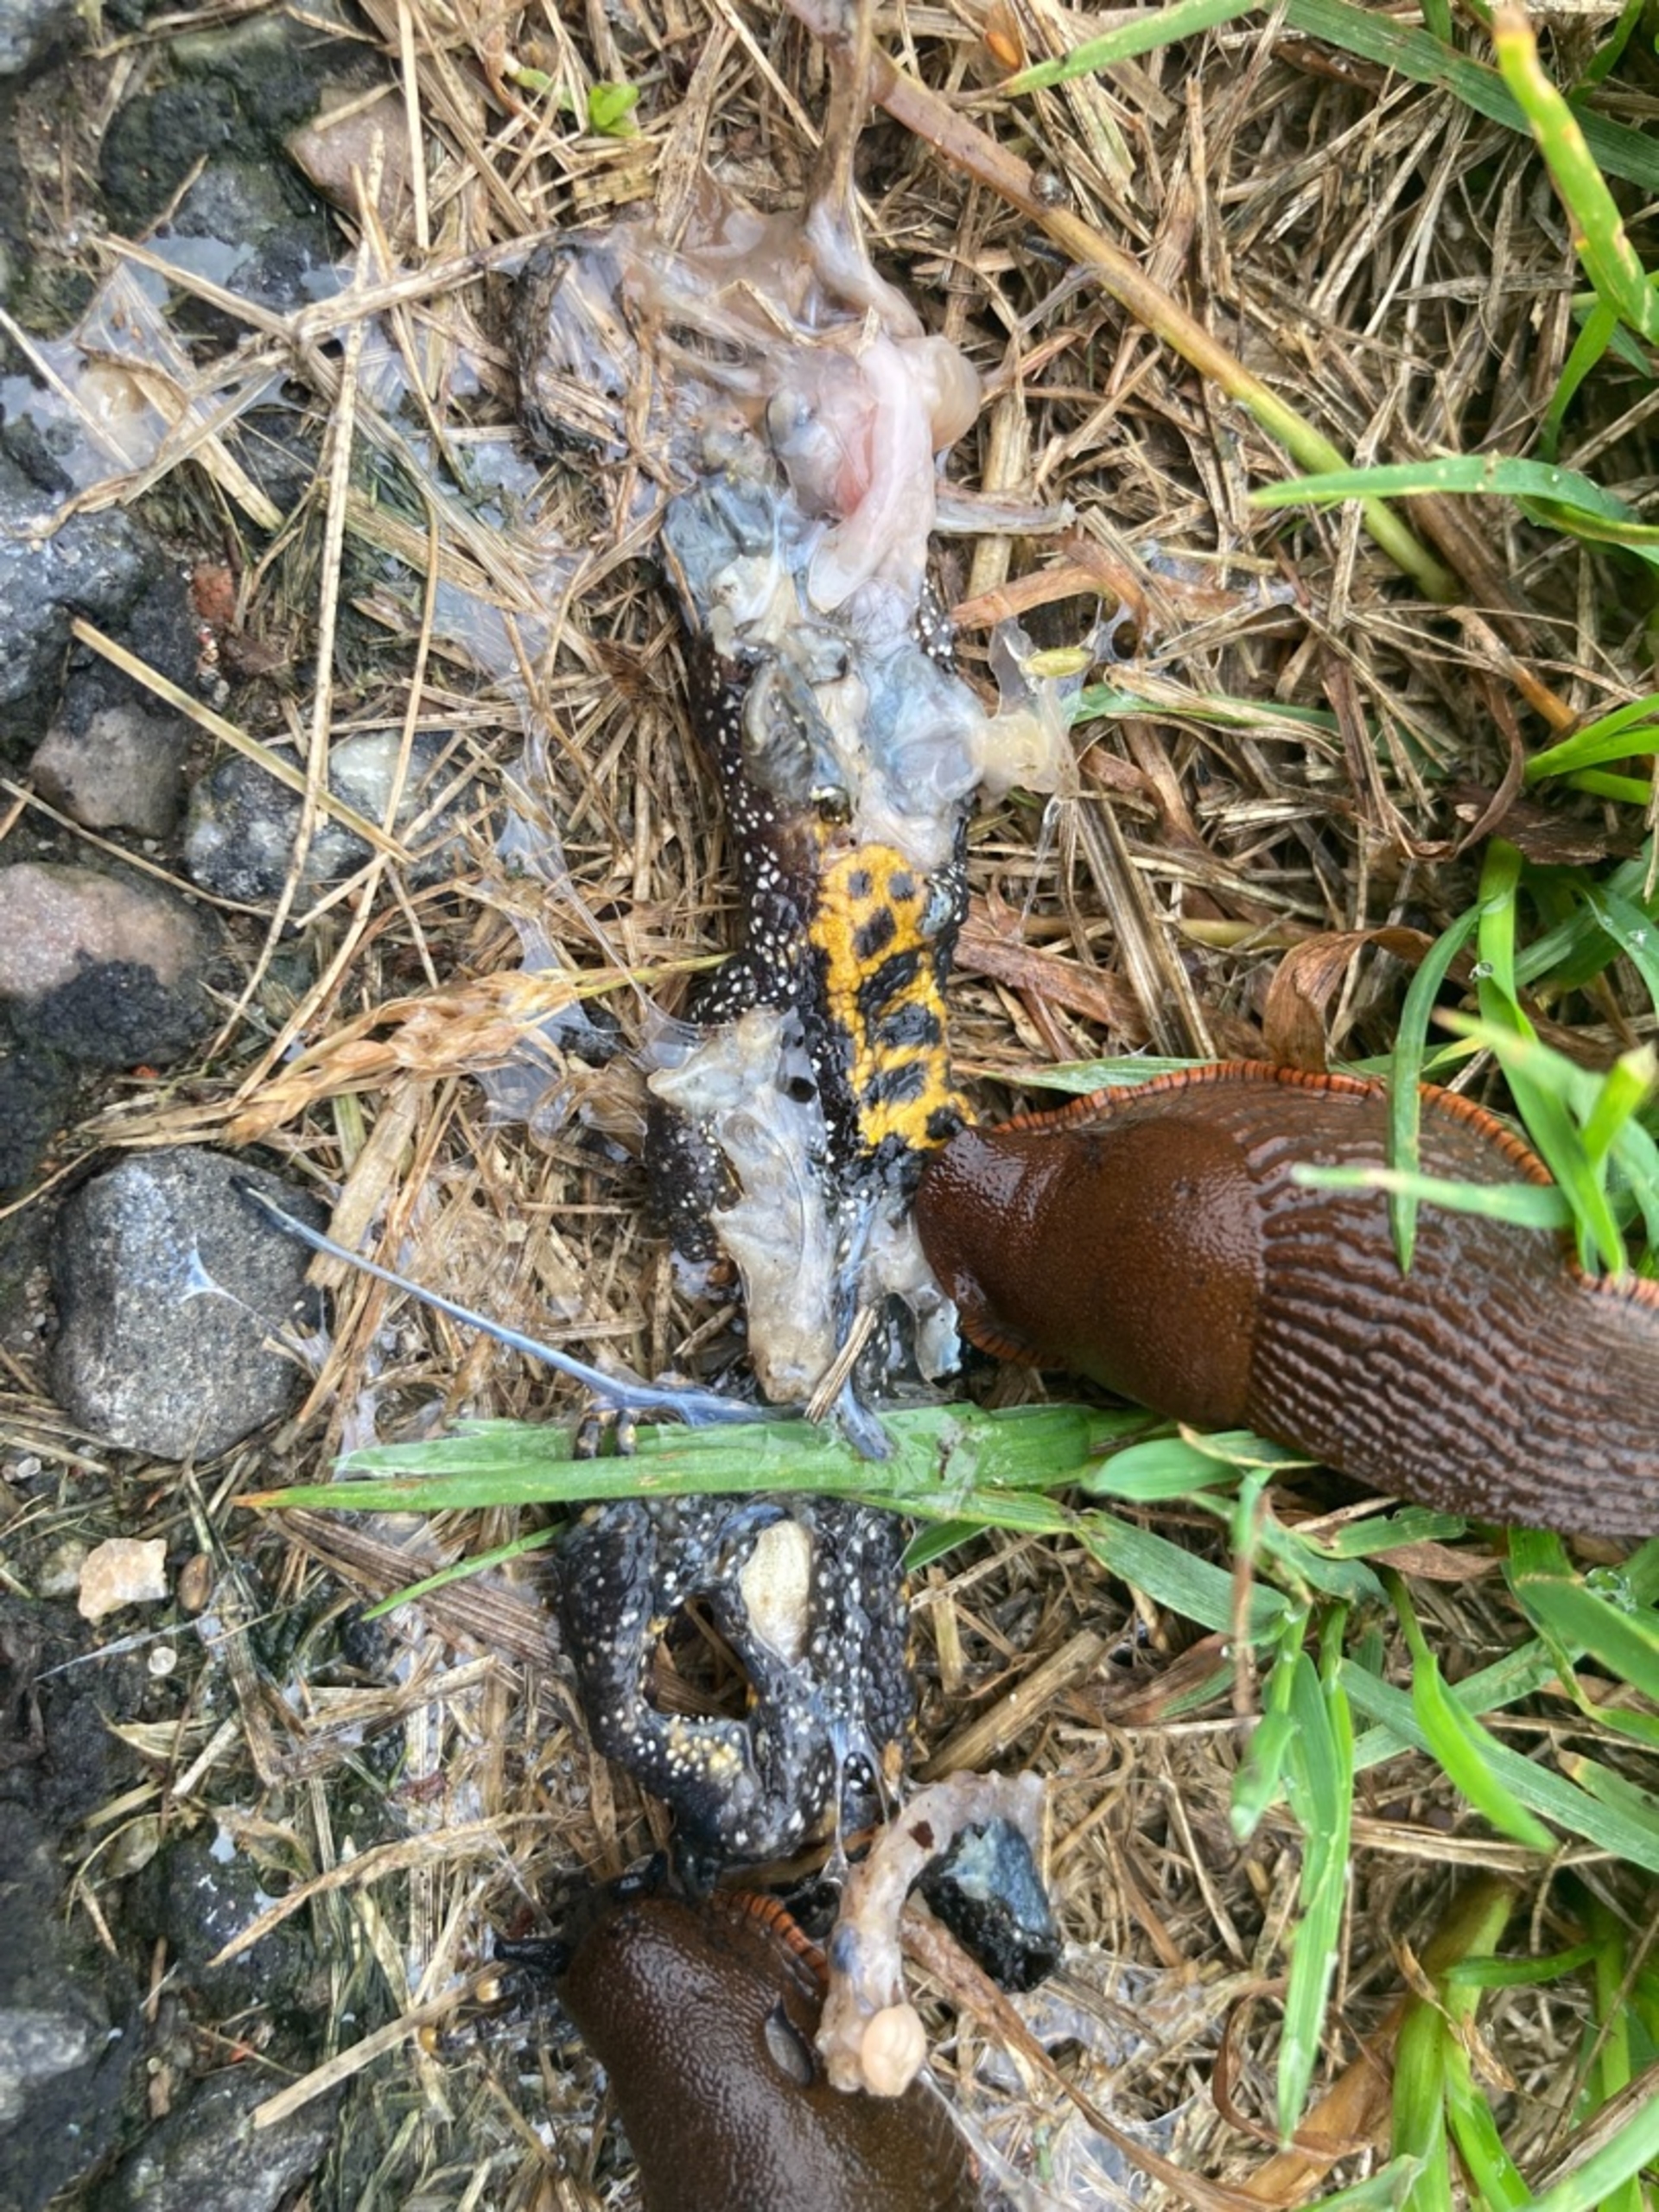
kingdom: Animalia
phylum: Chordata
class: Amphibia
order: Caudata
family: Salamandridae
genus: Triturus
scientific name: Triturus cristatus
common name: Stor vandsalamander
